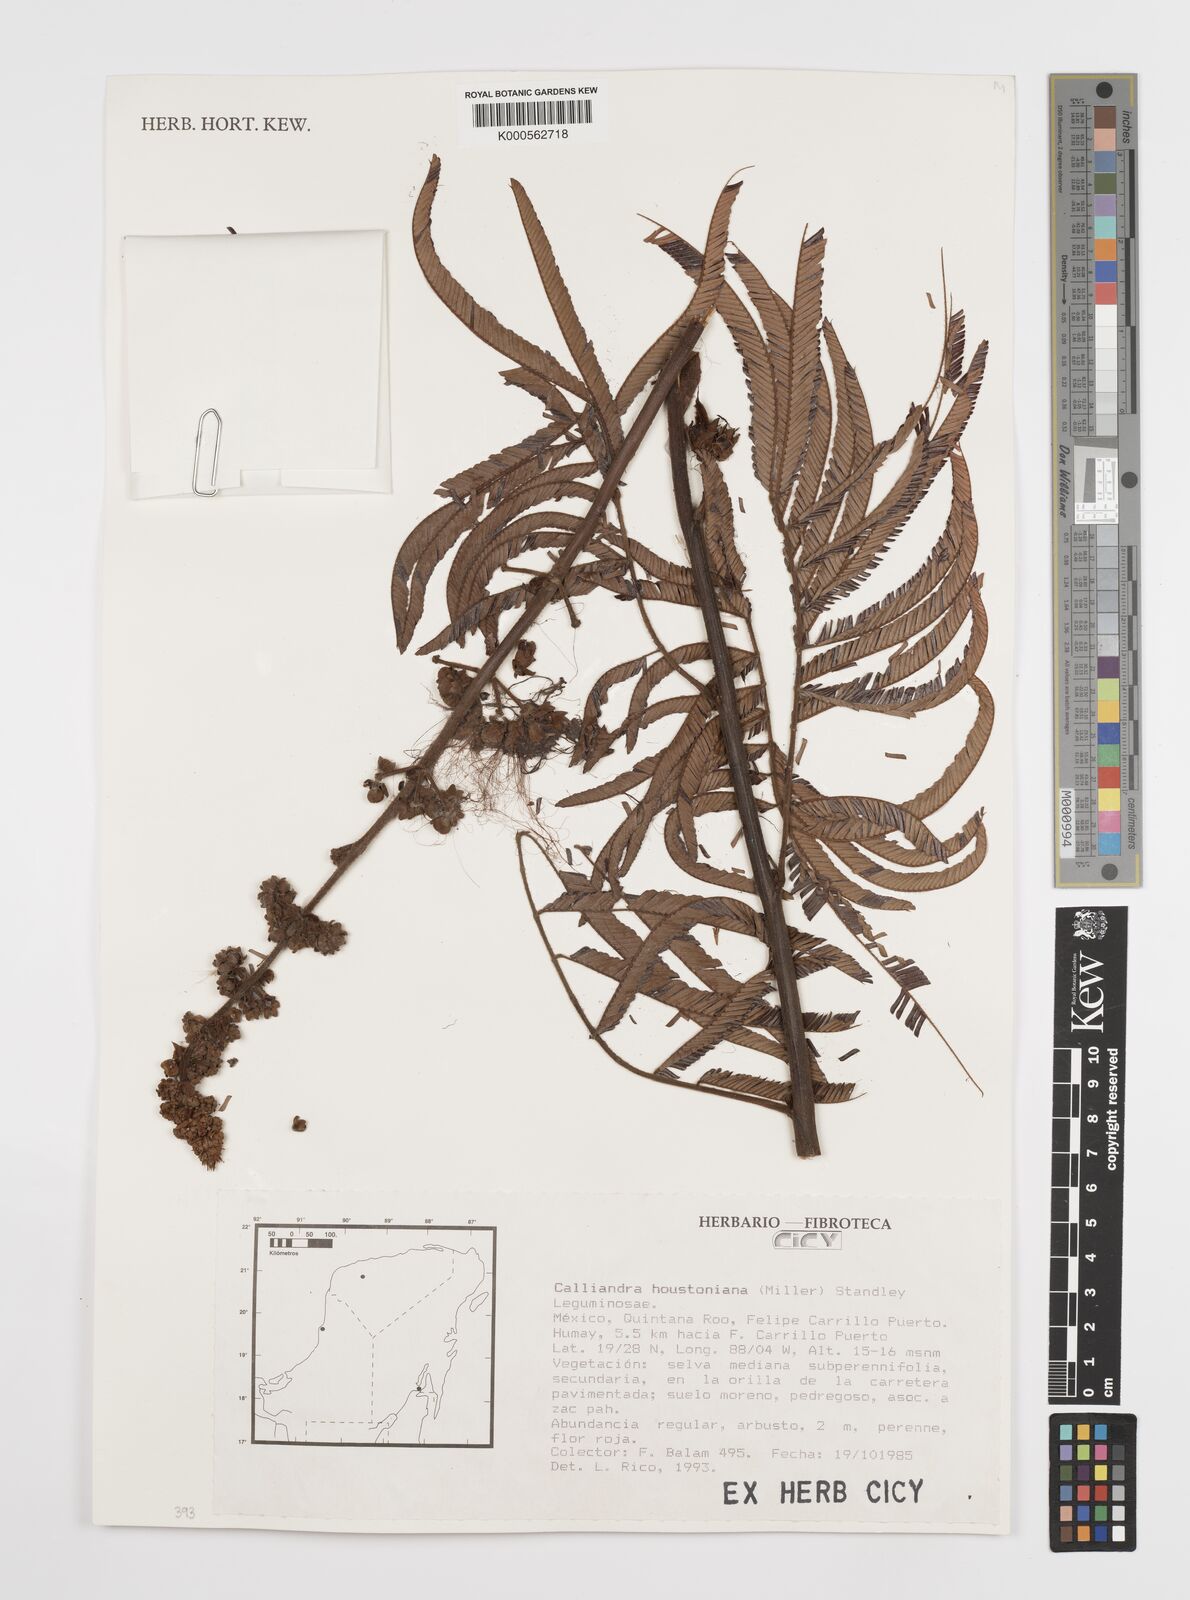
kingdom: Plantae
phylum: Tracheophyta
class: Magnoliopsida
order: Fabales
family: Fabaceae
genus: Calliandra
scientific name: Calliandra houstoniana
